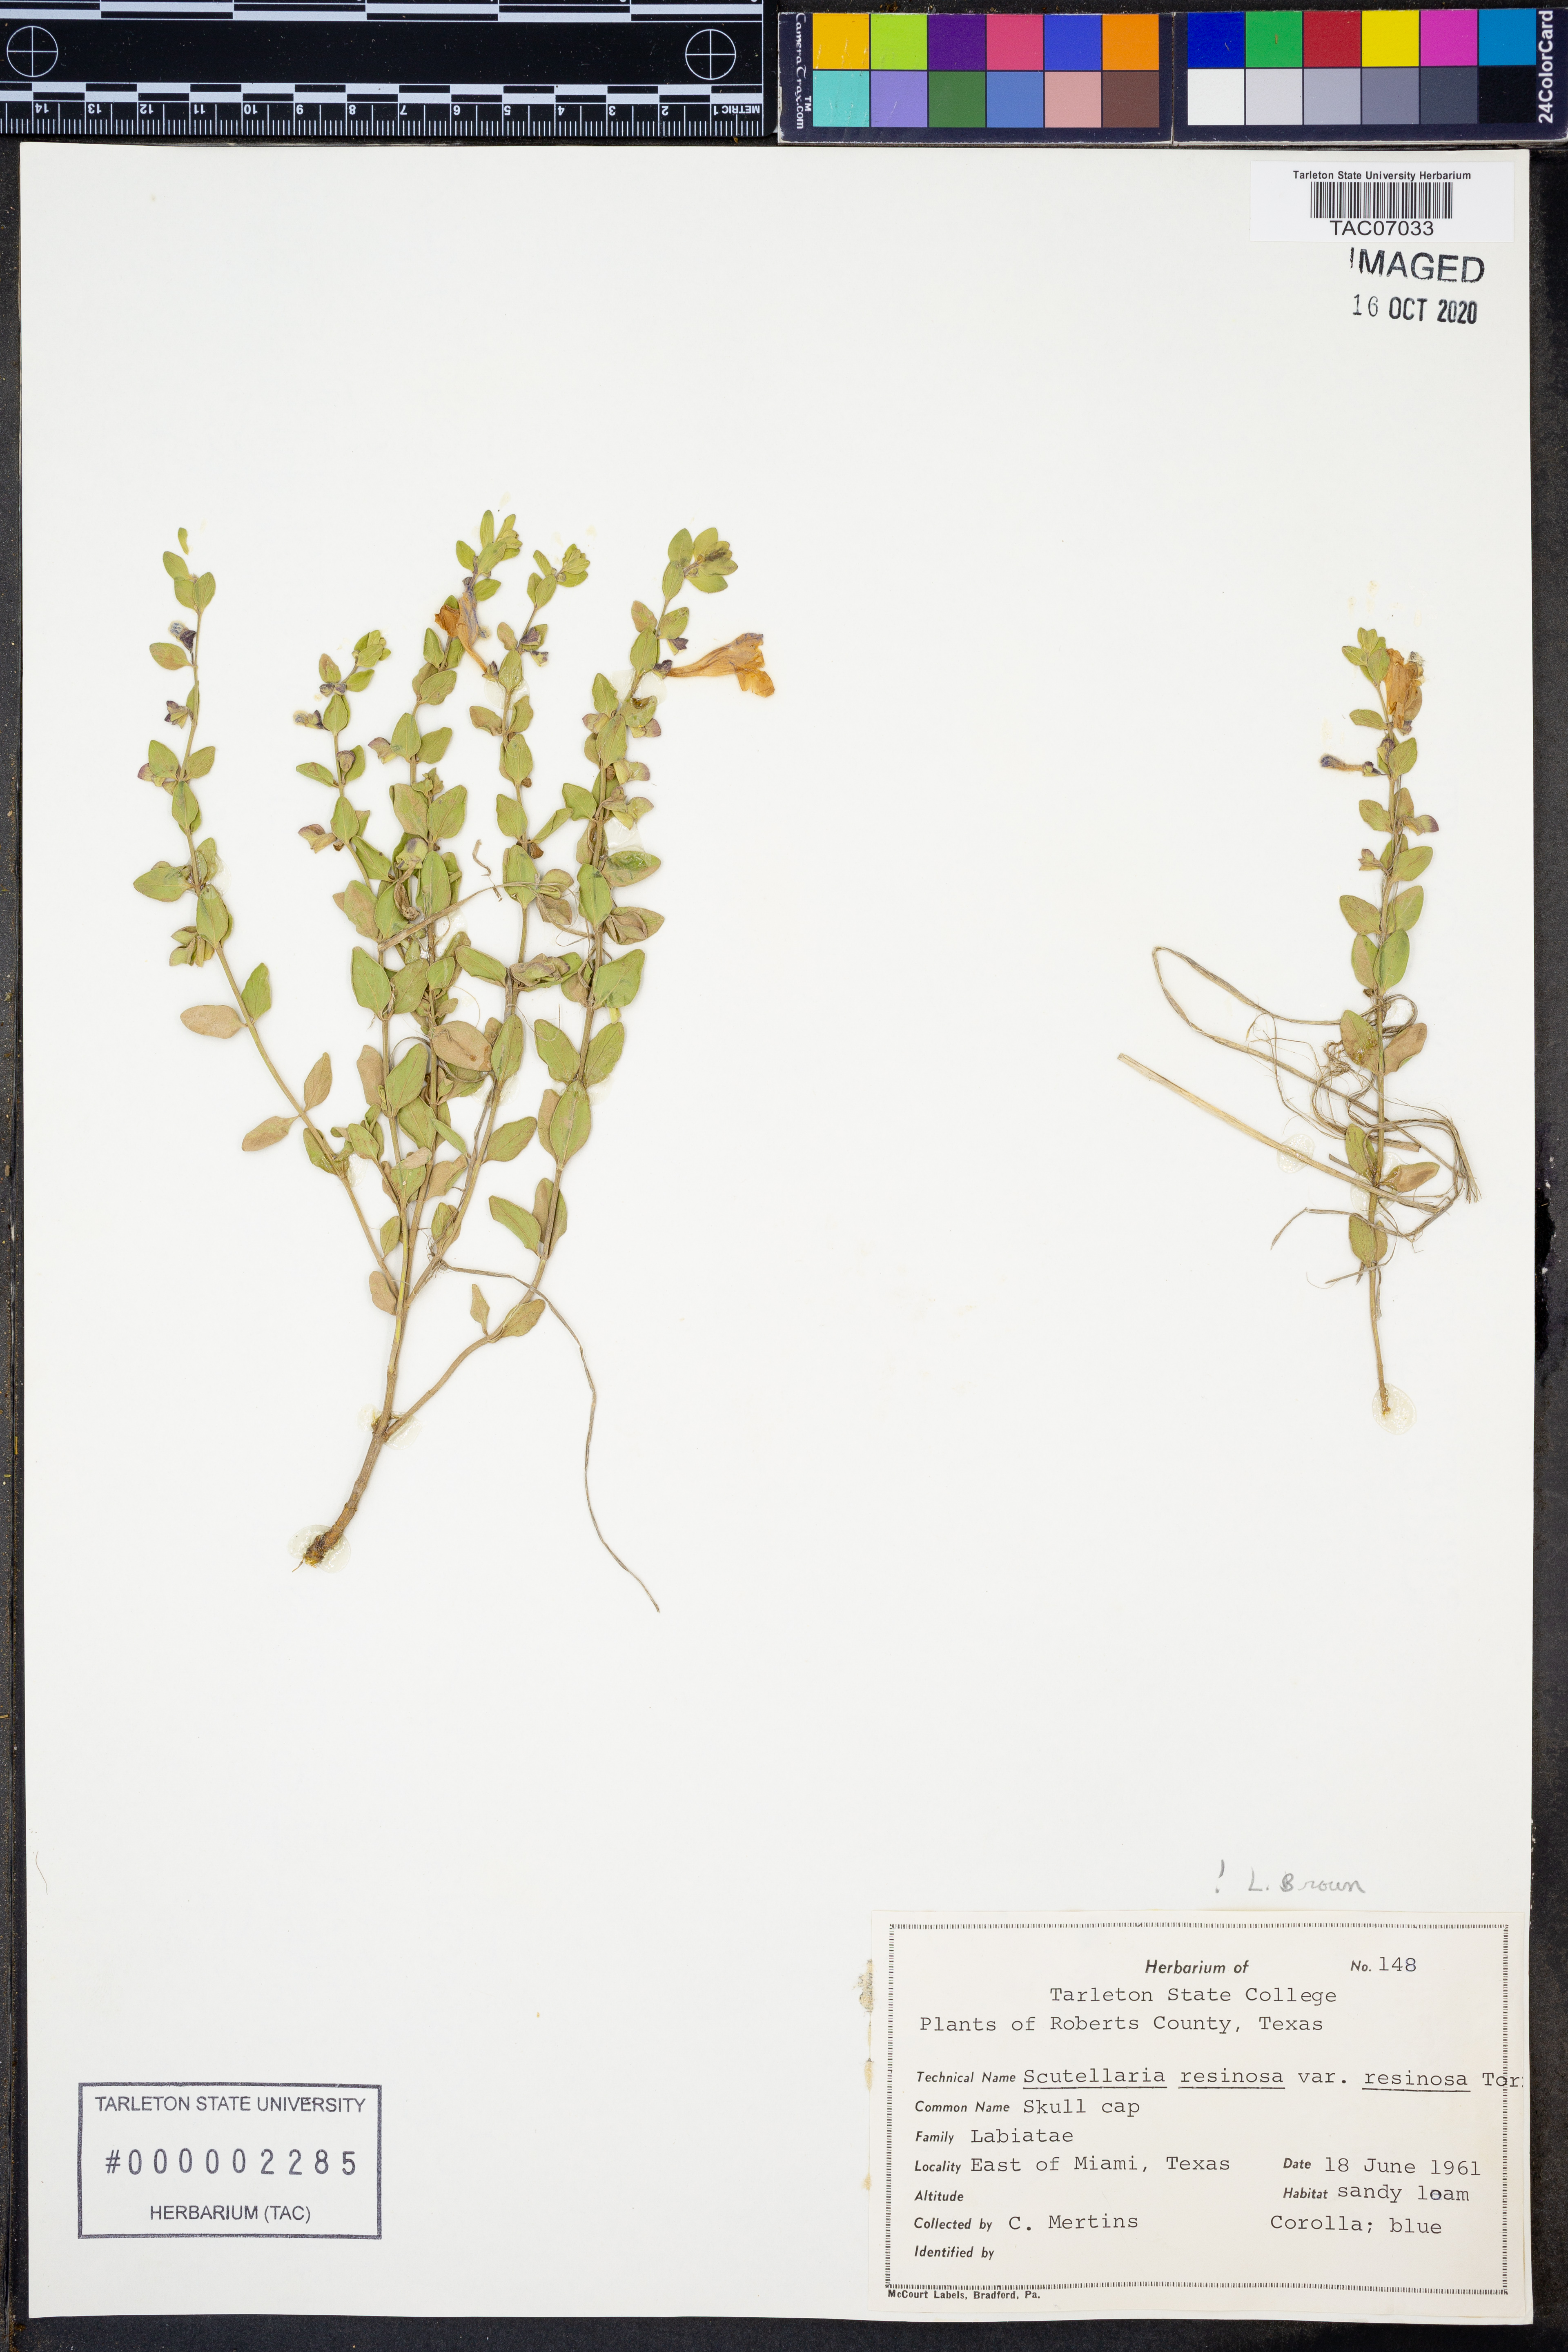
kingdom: Plantae
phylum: Tracheophyta
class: Magnoliopsida
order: Lamiales
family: Lamiaceae
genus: Scutellaria
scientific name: Scutellaria resinosa
